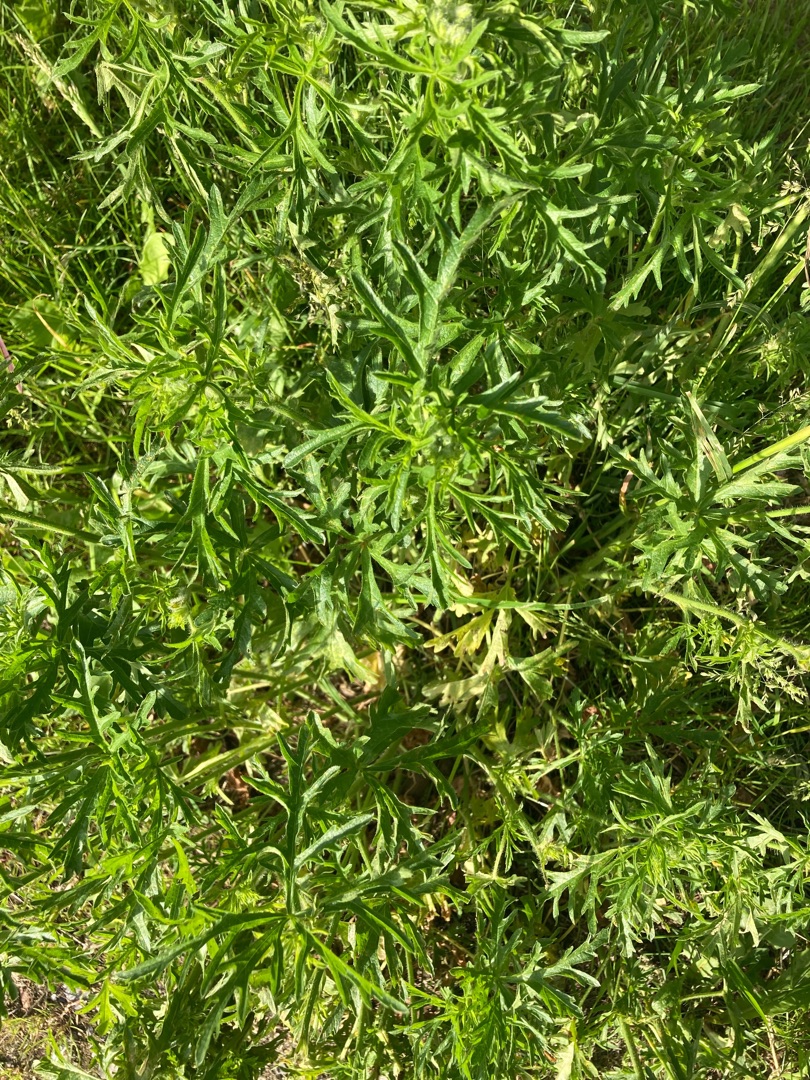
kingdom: Plantae
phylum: Tracheophyta
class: Magnoliopsida
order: Malvales
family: Malvaceae
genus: Malva
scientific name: Malva moschata
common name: Moskus-katost
